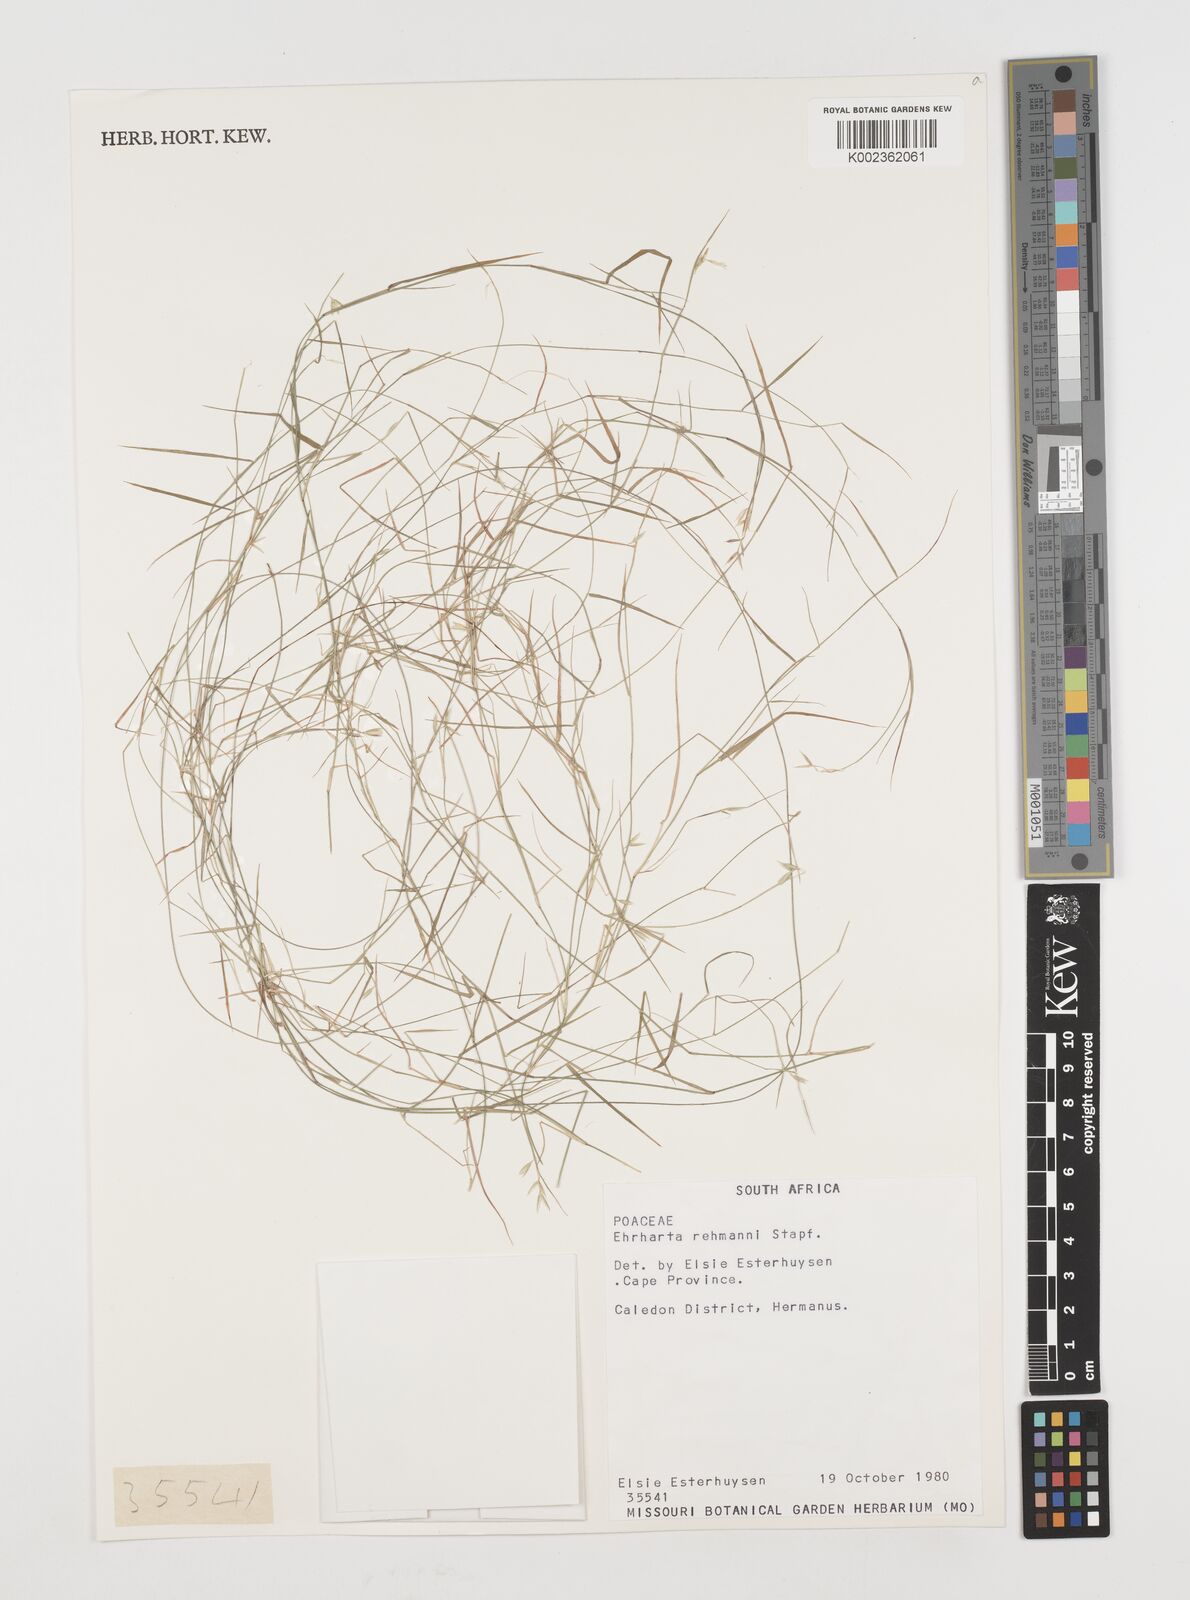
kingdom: Plantae
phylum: Tracheophyta
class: Liliopsida
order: Poales
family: Poaceae
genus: Ehrharta
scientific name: Ehrharta rehmannii
